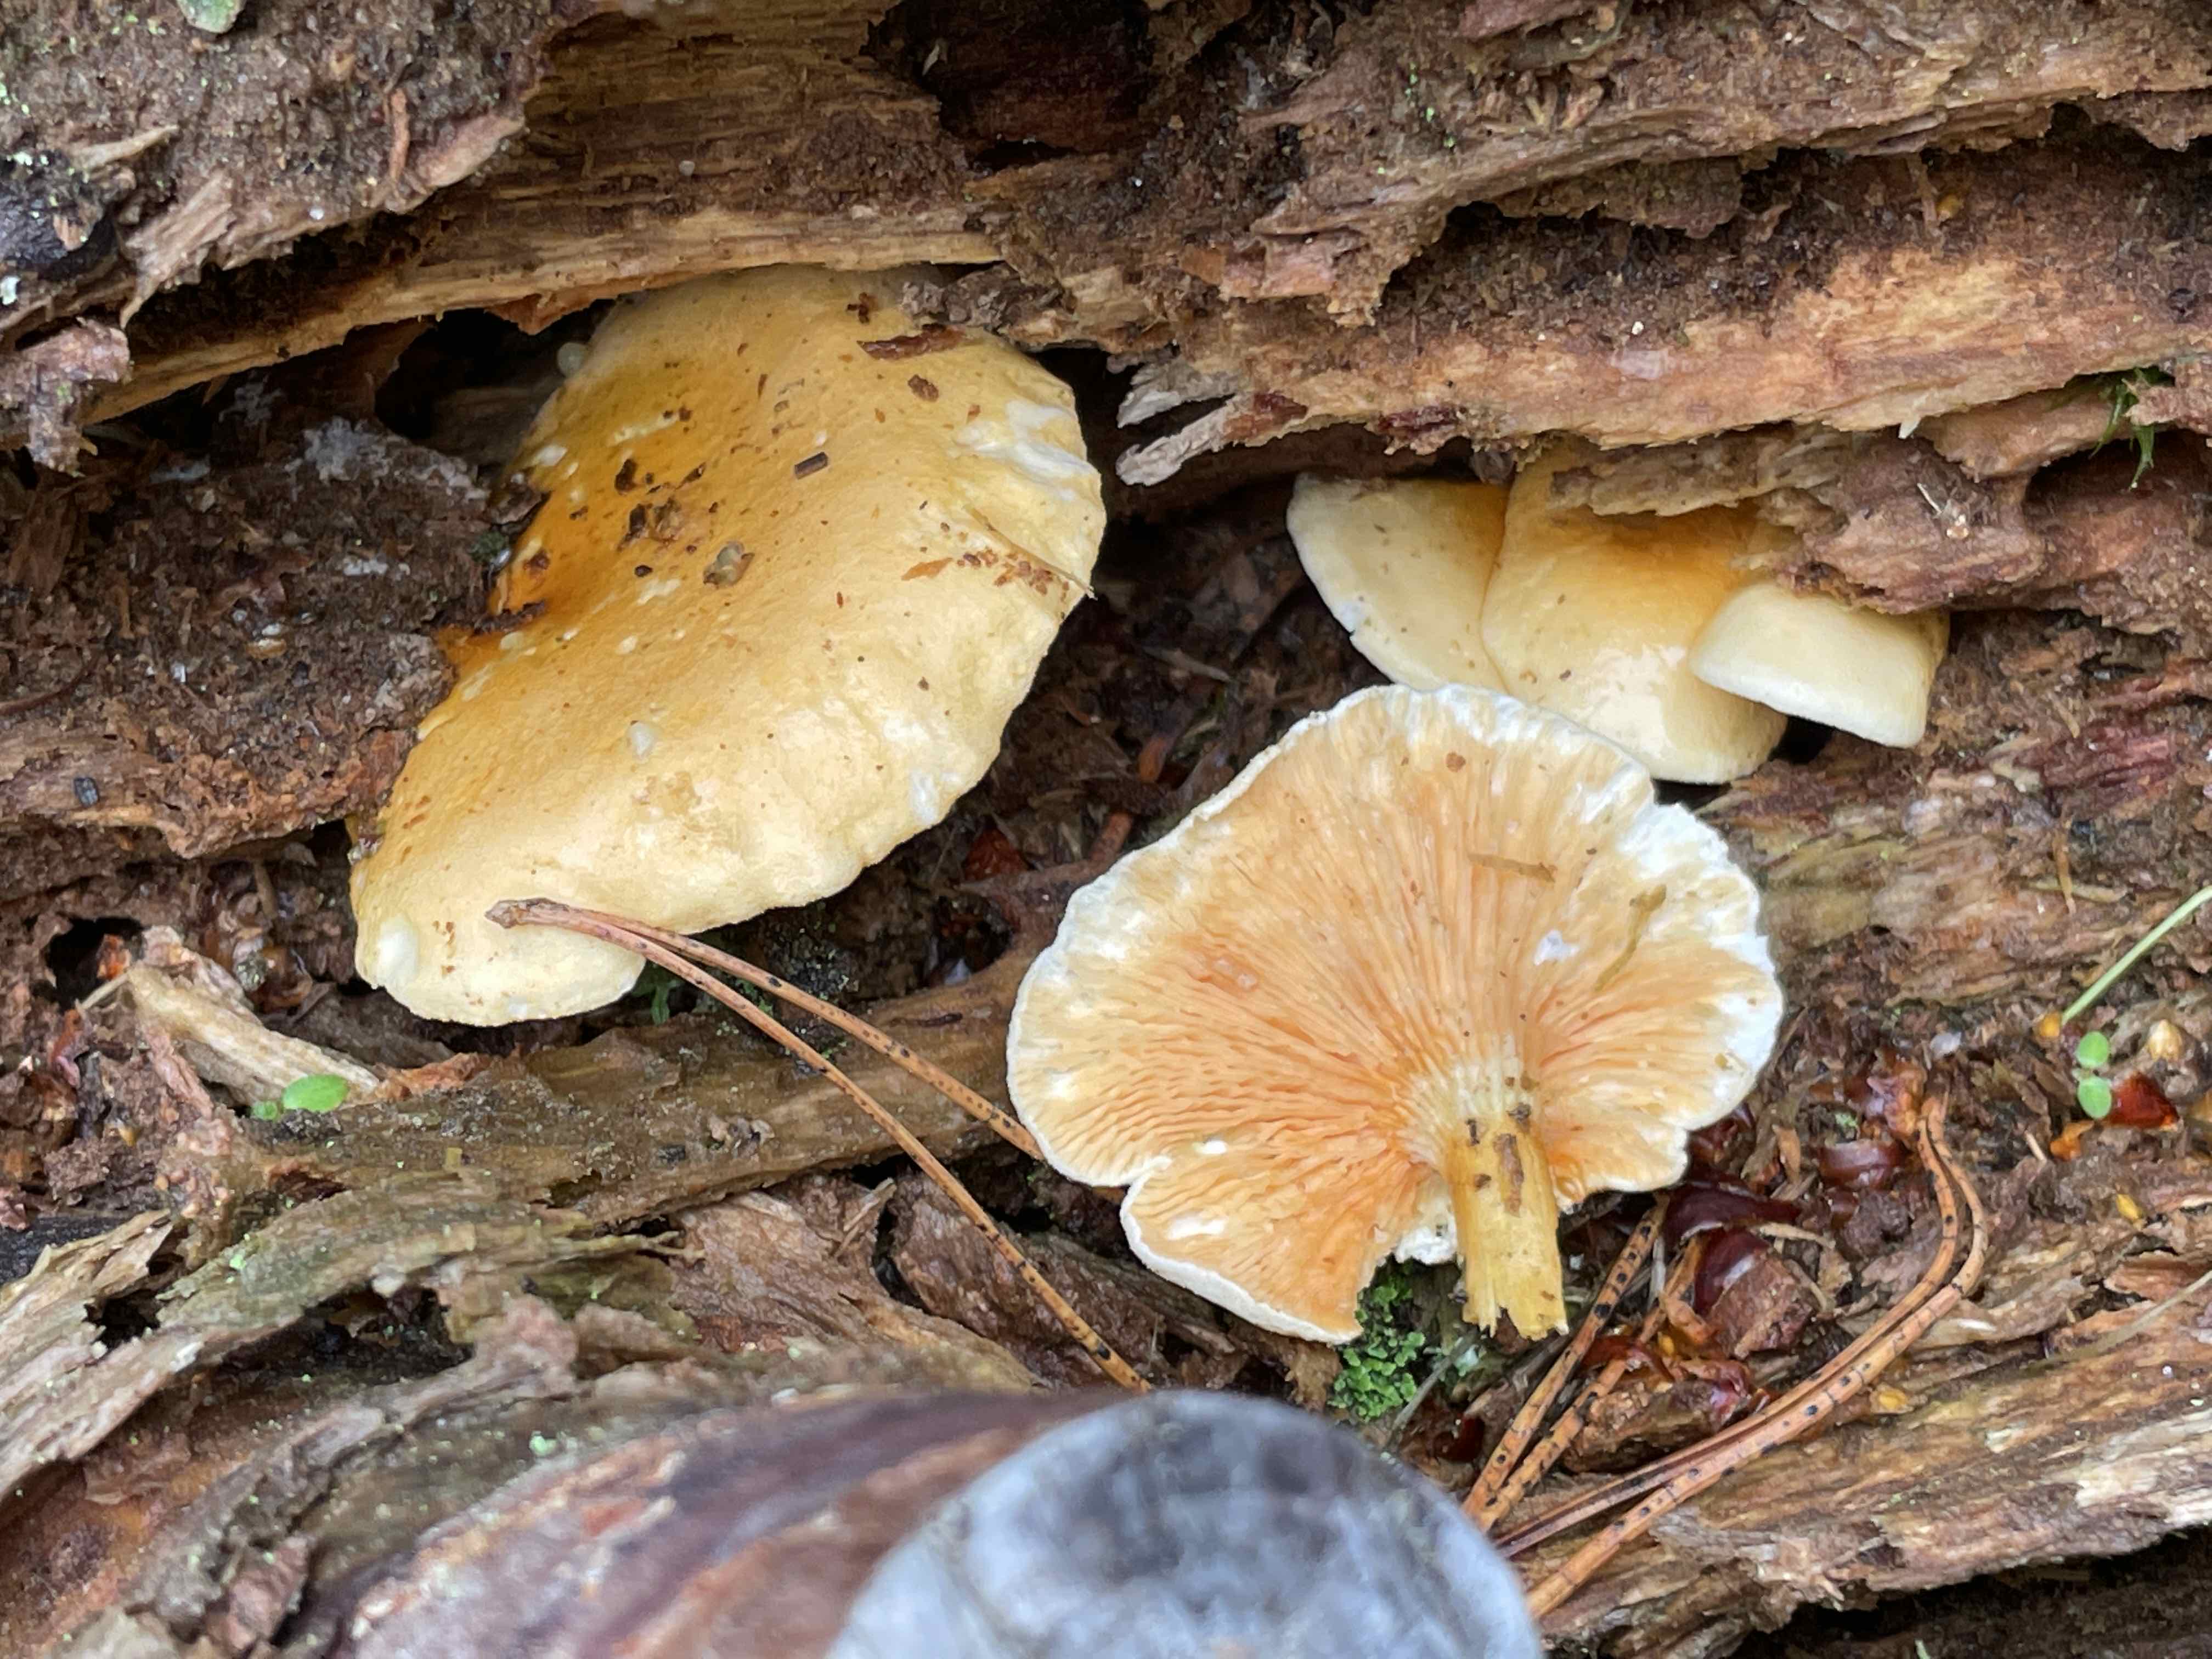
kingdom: Fungi
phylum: Basidiomycota
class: Agaricomycetes
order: Boletales
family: Hygrophoropsidaceae
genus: Hygrophoropsis
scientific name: Hygrophoropsis aurantiaca
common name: almindelig orangekantarel
